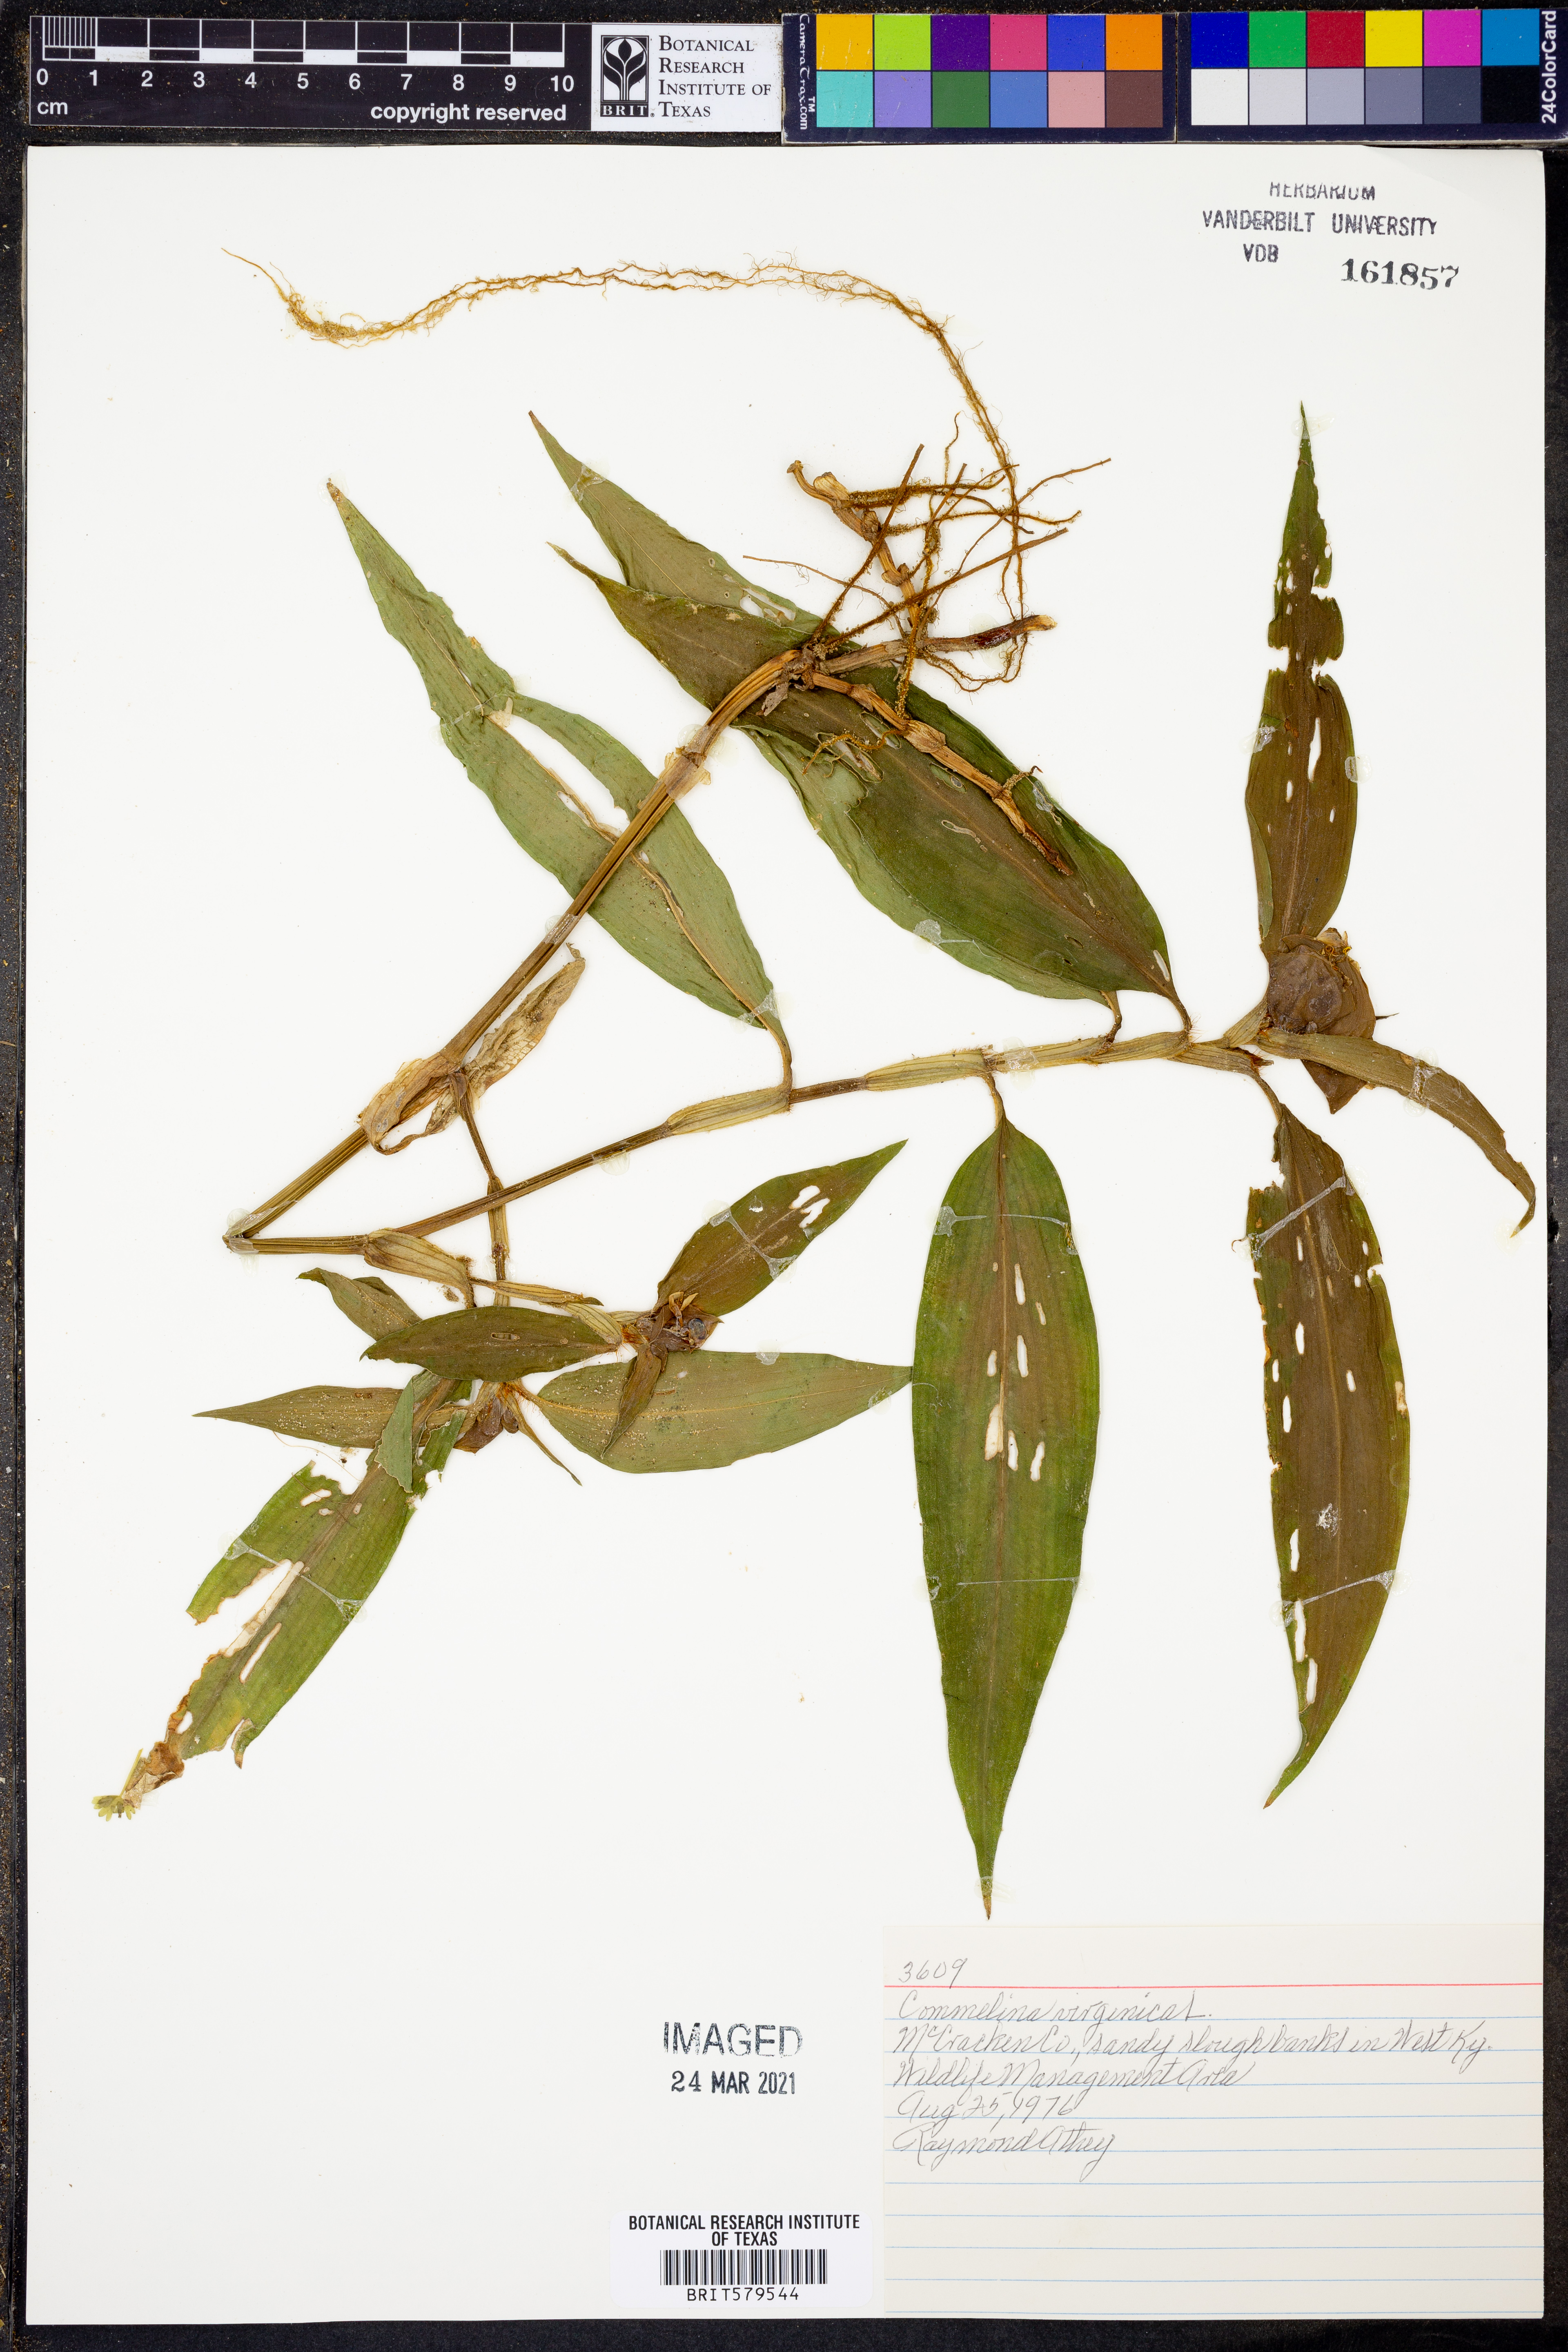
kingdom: Plantae
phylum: Tracheophyta
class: Liliopsida
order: Commelinales
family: Commelinaceae
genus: Commelina
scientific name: Commelina virginica
